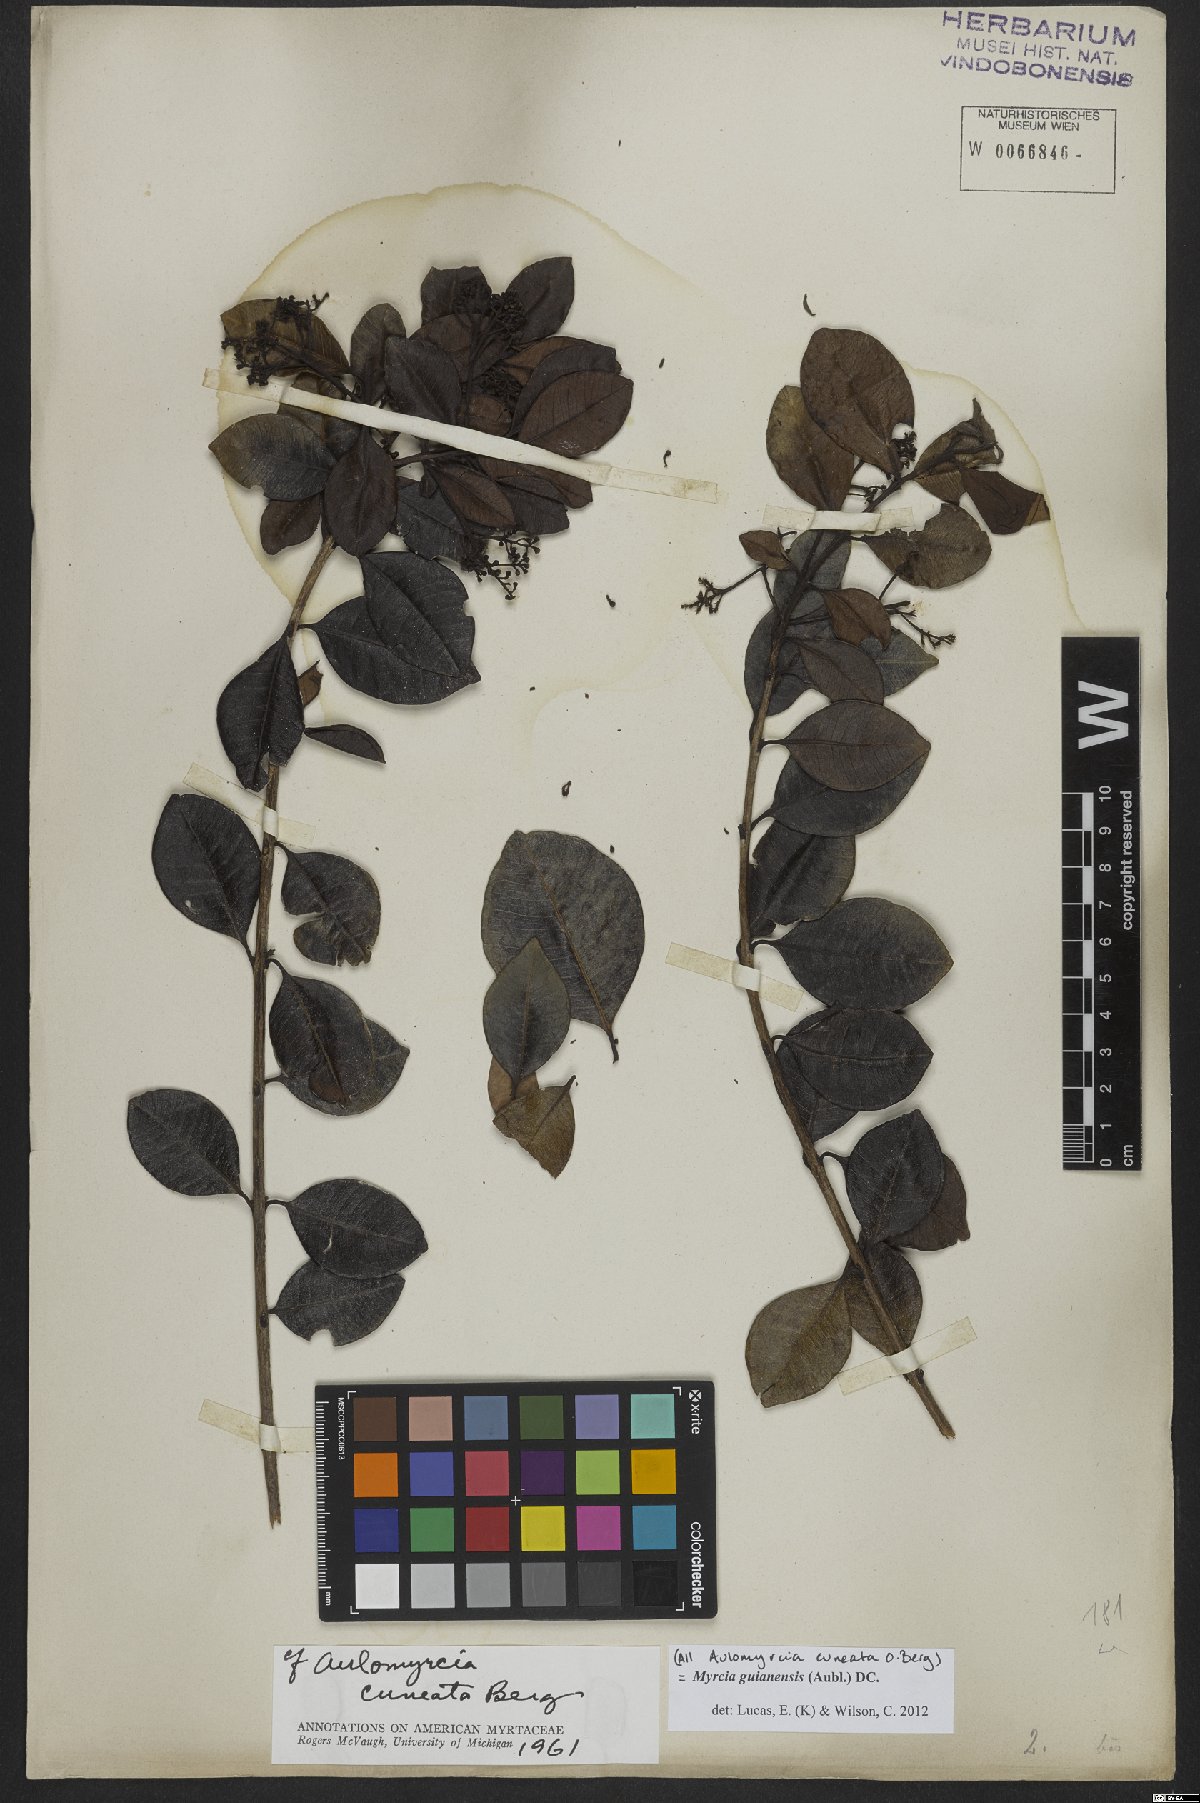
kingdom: Plantae
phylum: Tracheophyta
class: Magnoliopsida
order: Myrtales
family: Myrtaceae
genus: Myrcia
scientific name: Myrcia guianensis
